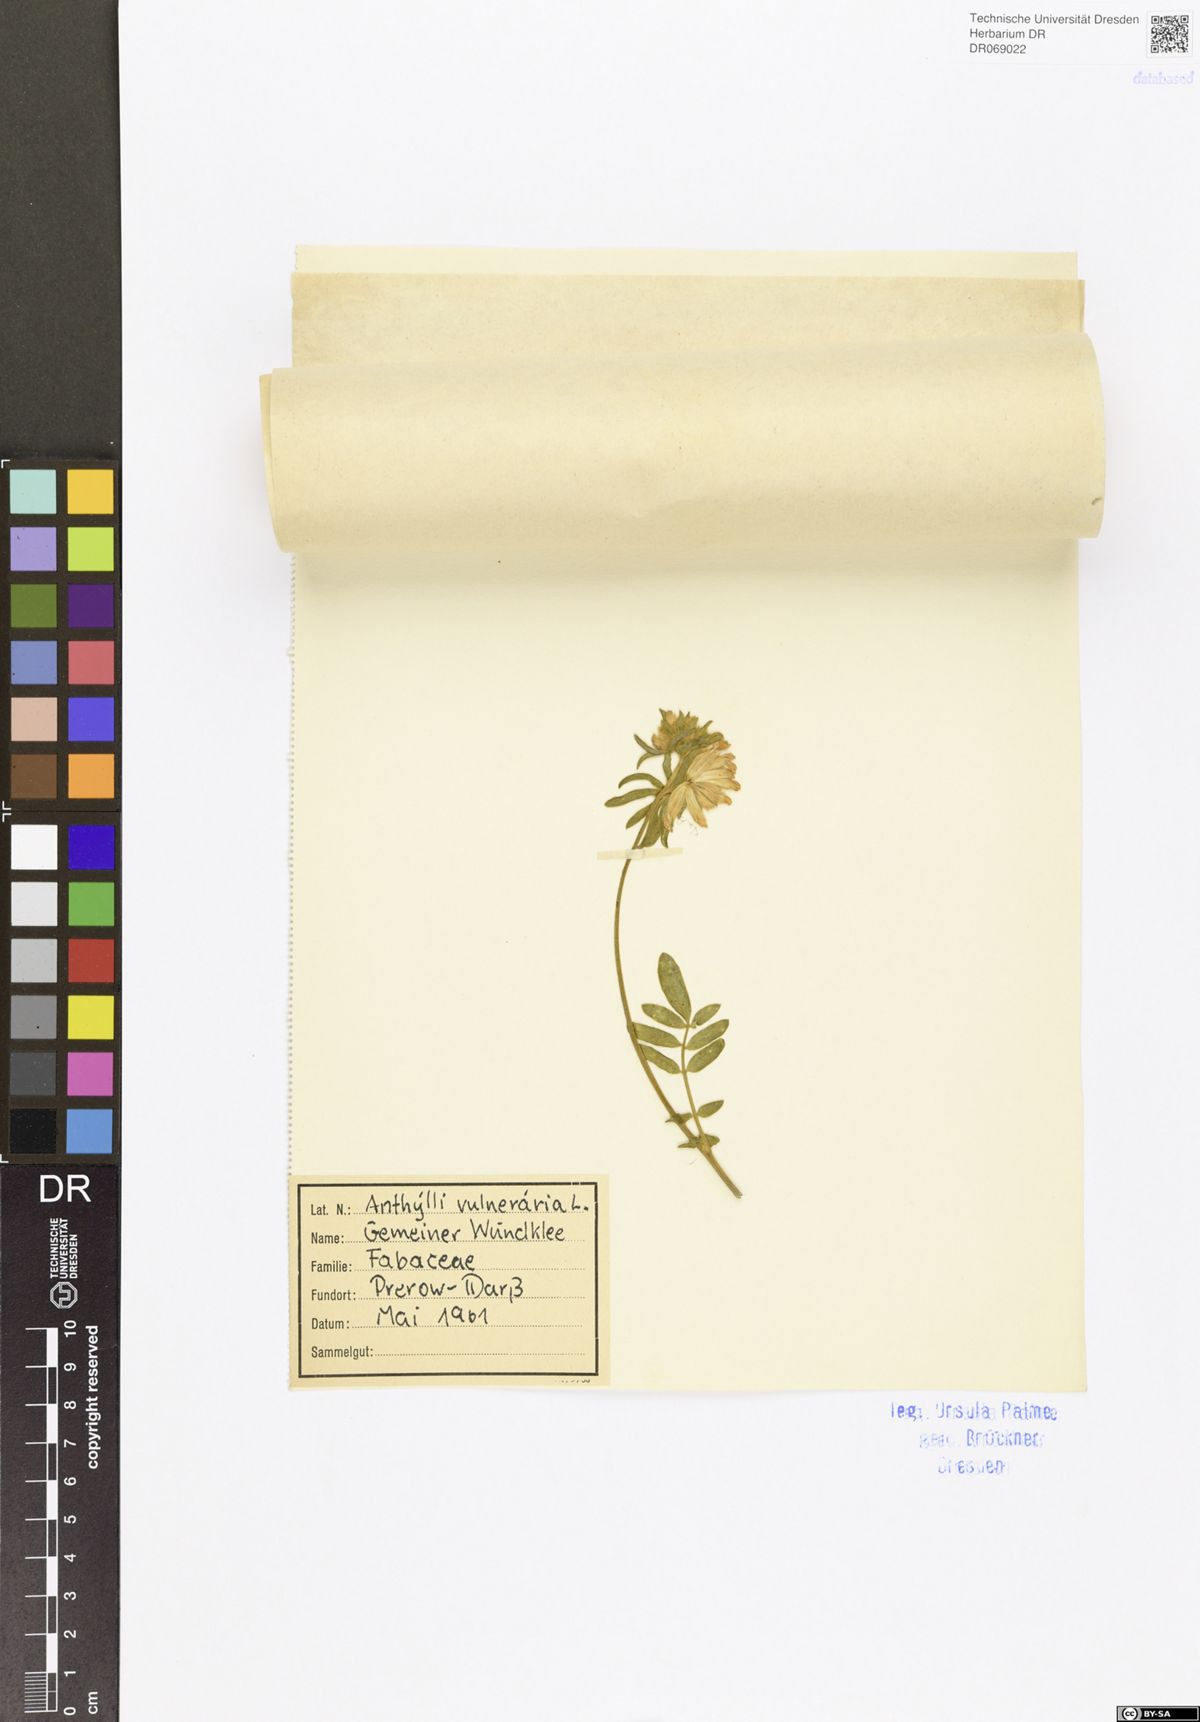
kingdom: Plantae
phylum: Tracheophyta
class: Magnoliopsida
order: Fabales
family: Fabaceae
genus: Anthyllis
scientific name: Anthyllis vulneraria
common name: Kidney vetch
